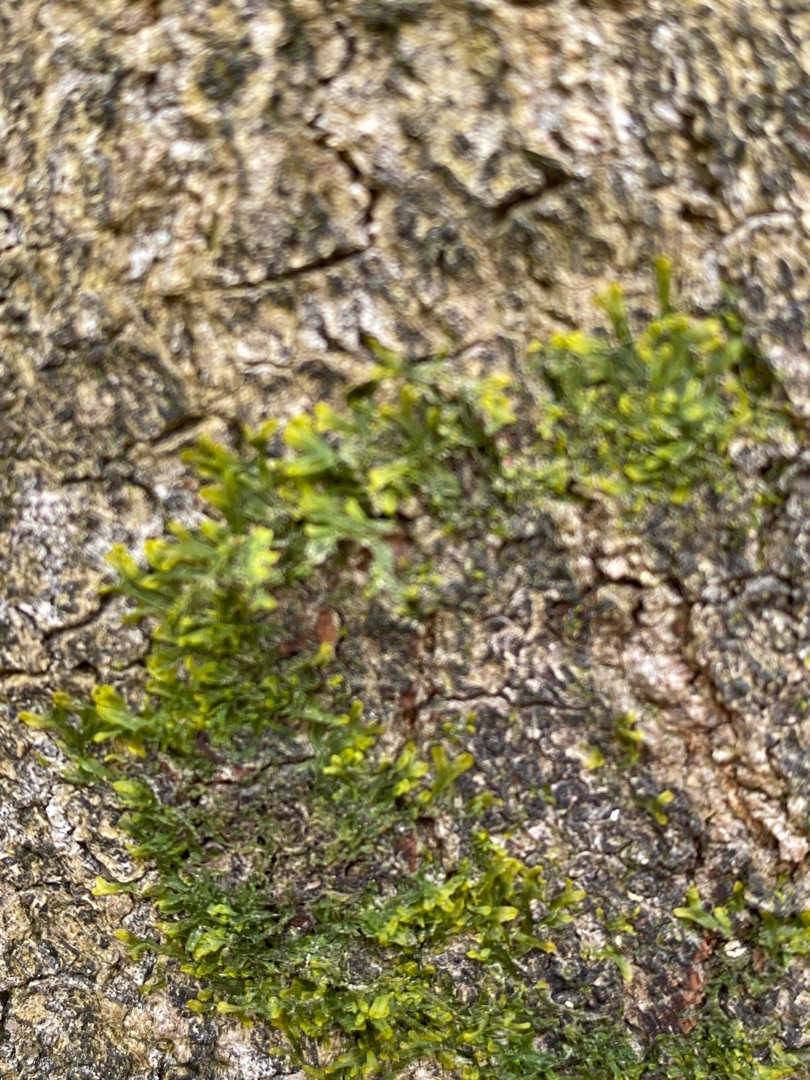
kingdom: Plantae
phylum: Marchantiophyta
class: Jungermanniopsida
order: Metzgeriales
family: Metzgeriaceae
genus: Metzgeria
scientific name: Metzgeria furcata
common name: Almindelig gaffelløv
